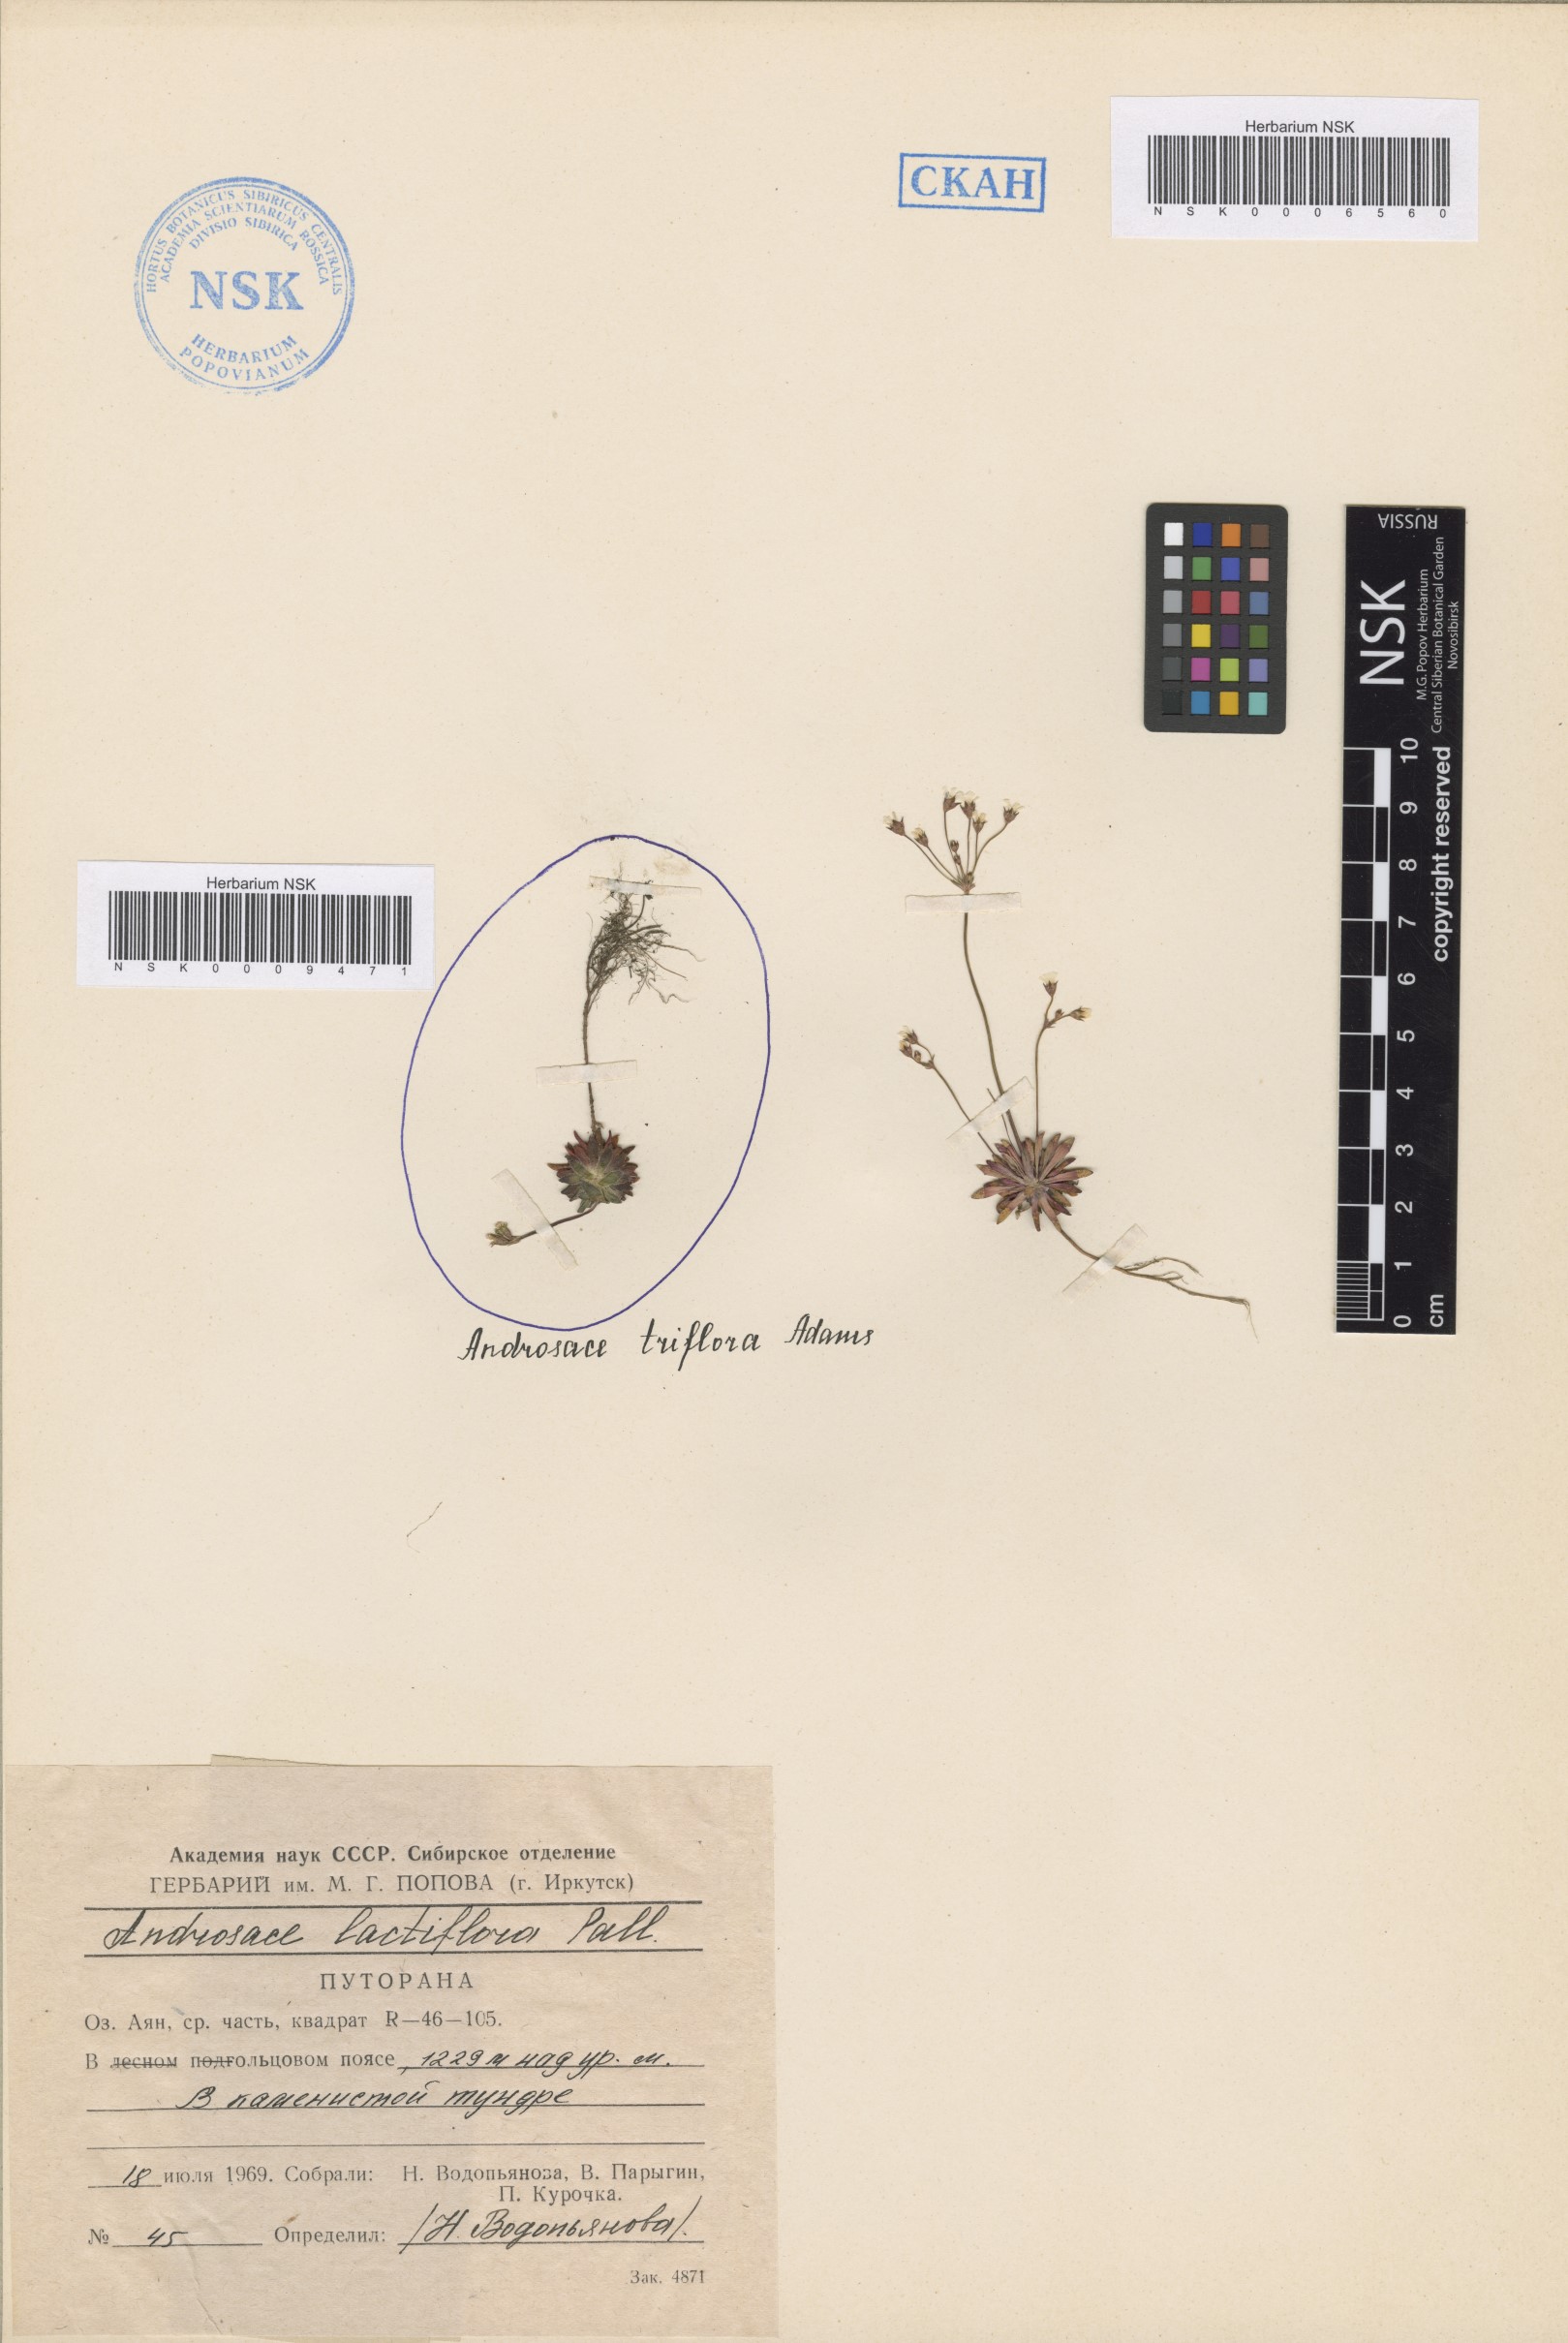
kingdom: Plantae
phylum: Tracheophyta
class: Magnoliopsida
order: Ericales
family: Primulaceae
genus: Androsace
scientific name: Androsace lactiflora
